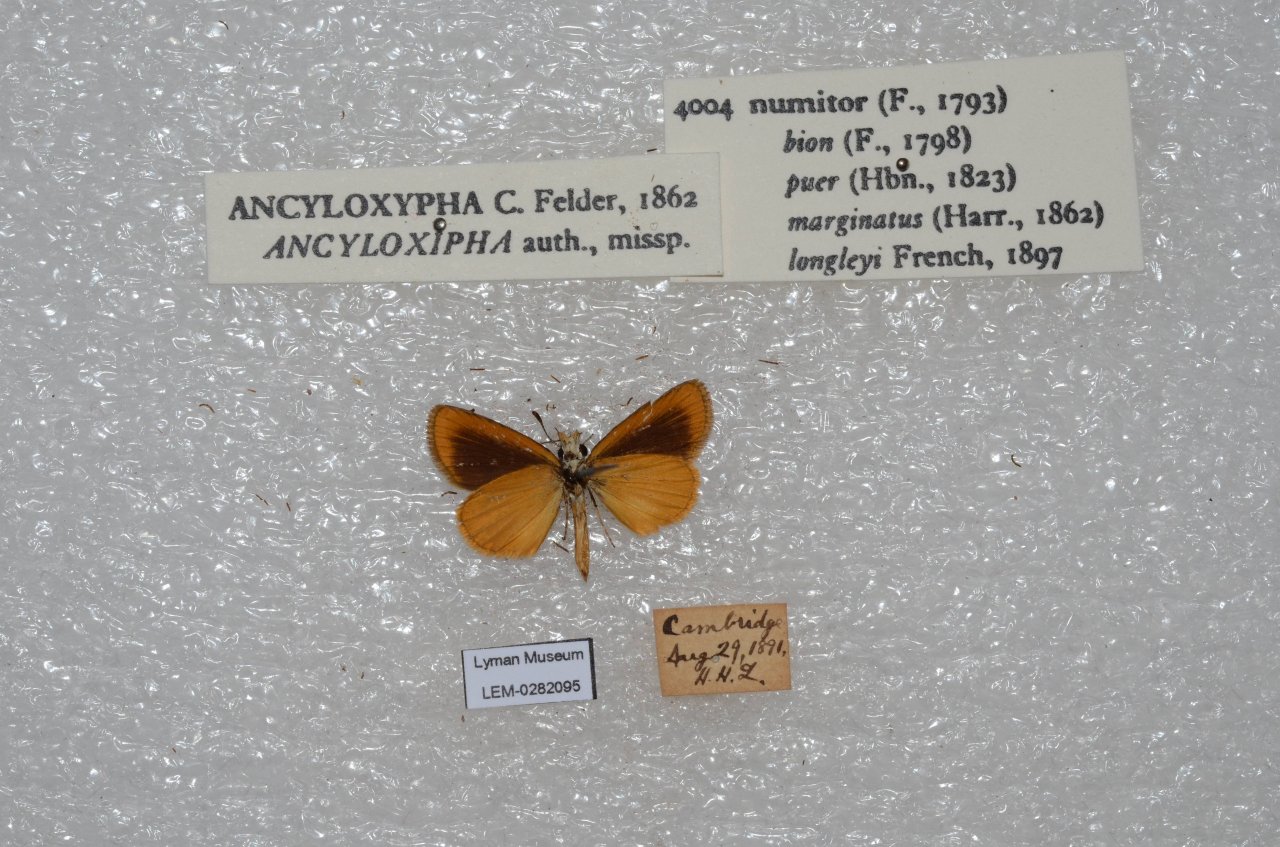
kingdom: Animalia
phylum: Arthropoda
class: Insecta
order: Lepidoptera
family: Hesperiidae
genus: Ancyloxypha
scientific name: Ancyloxypha numitor
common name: Least Skipper
